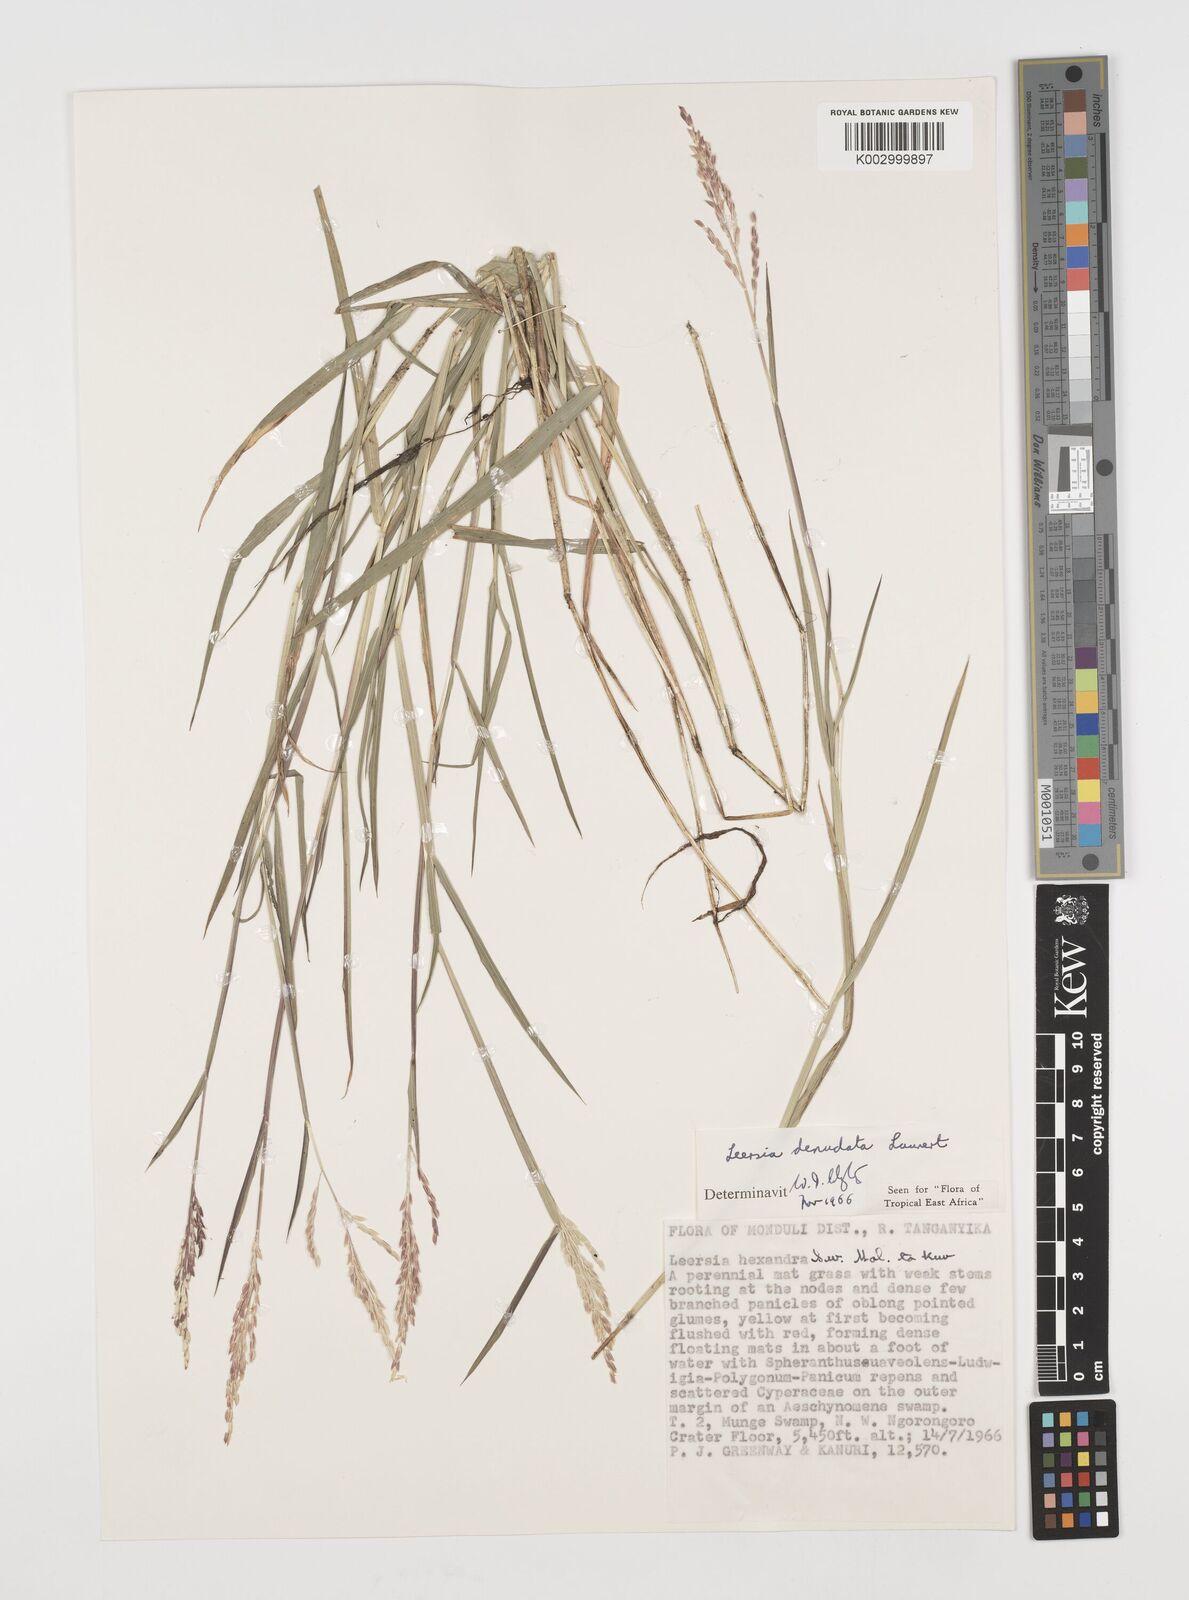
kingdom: Plantae
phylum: Tracheophyta
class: Liliopsida
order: Poales
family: Poaceae
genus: Leersia
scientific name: Leersia denudata
